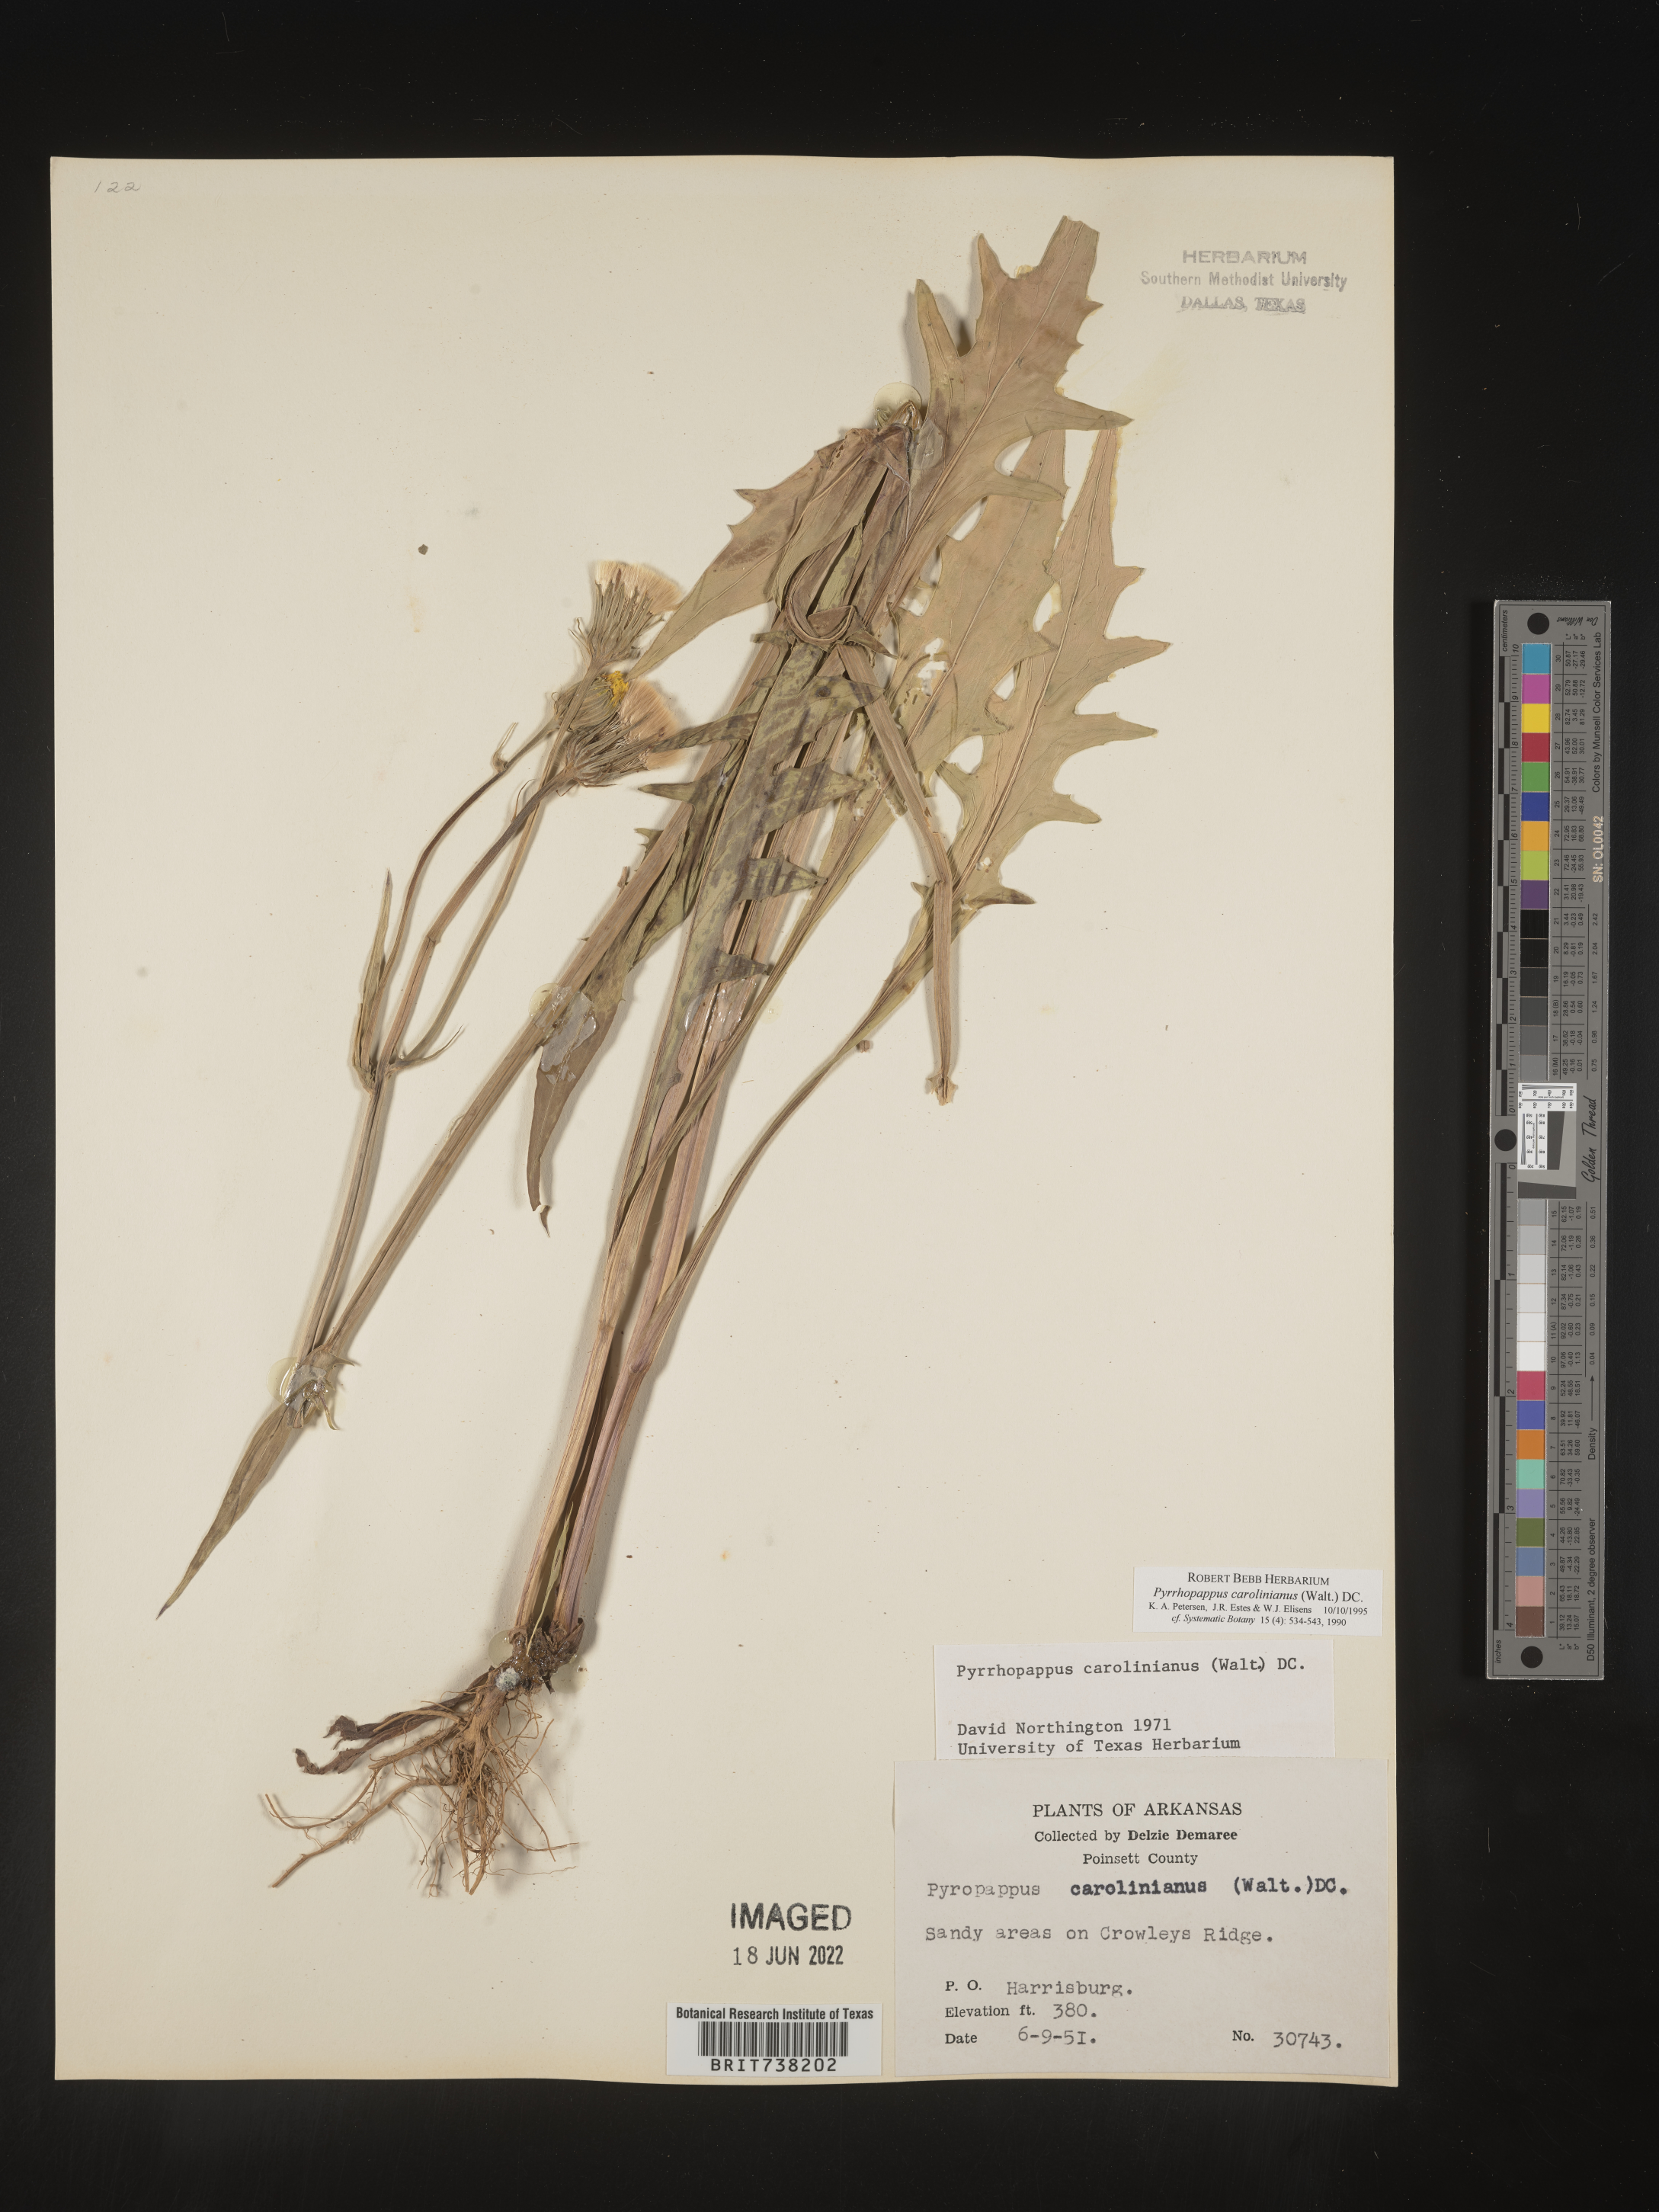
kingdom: Plantae
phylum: Tracheophyta
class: Magnoliopsida
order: Asterales
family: Asteraceae
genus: Pyrrhopappus
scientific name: Pyrrhopappus carolinianus
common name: Carolina desert-chicory
